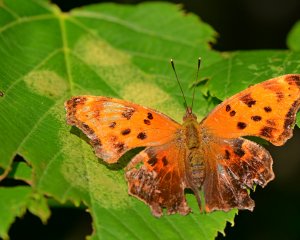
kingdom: Animalia
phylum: Arthropoda
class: Insecta
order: Lepidoptera
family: Nymphalidae
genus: Polygonia
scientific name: Polygonia comma
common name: Eastern Comma
